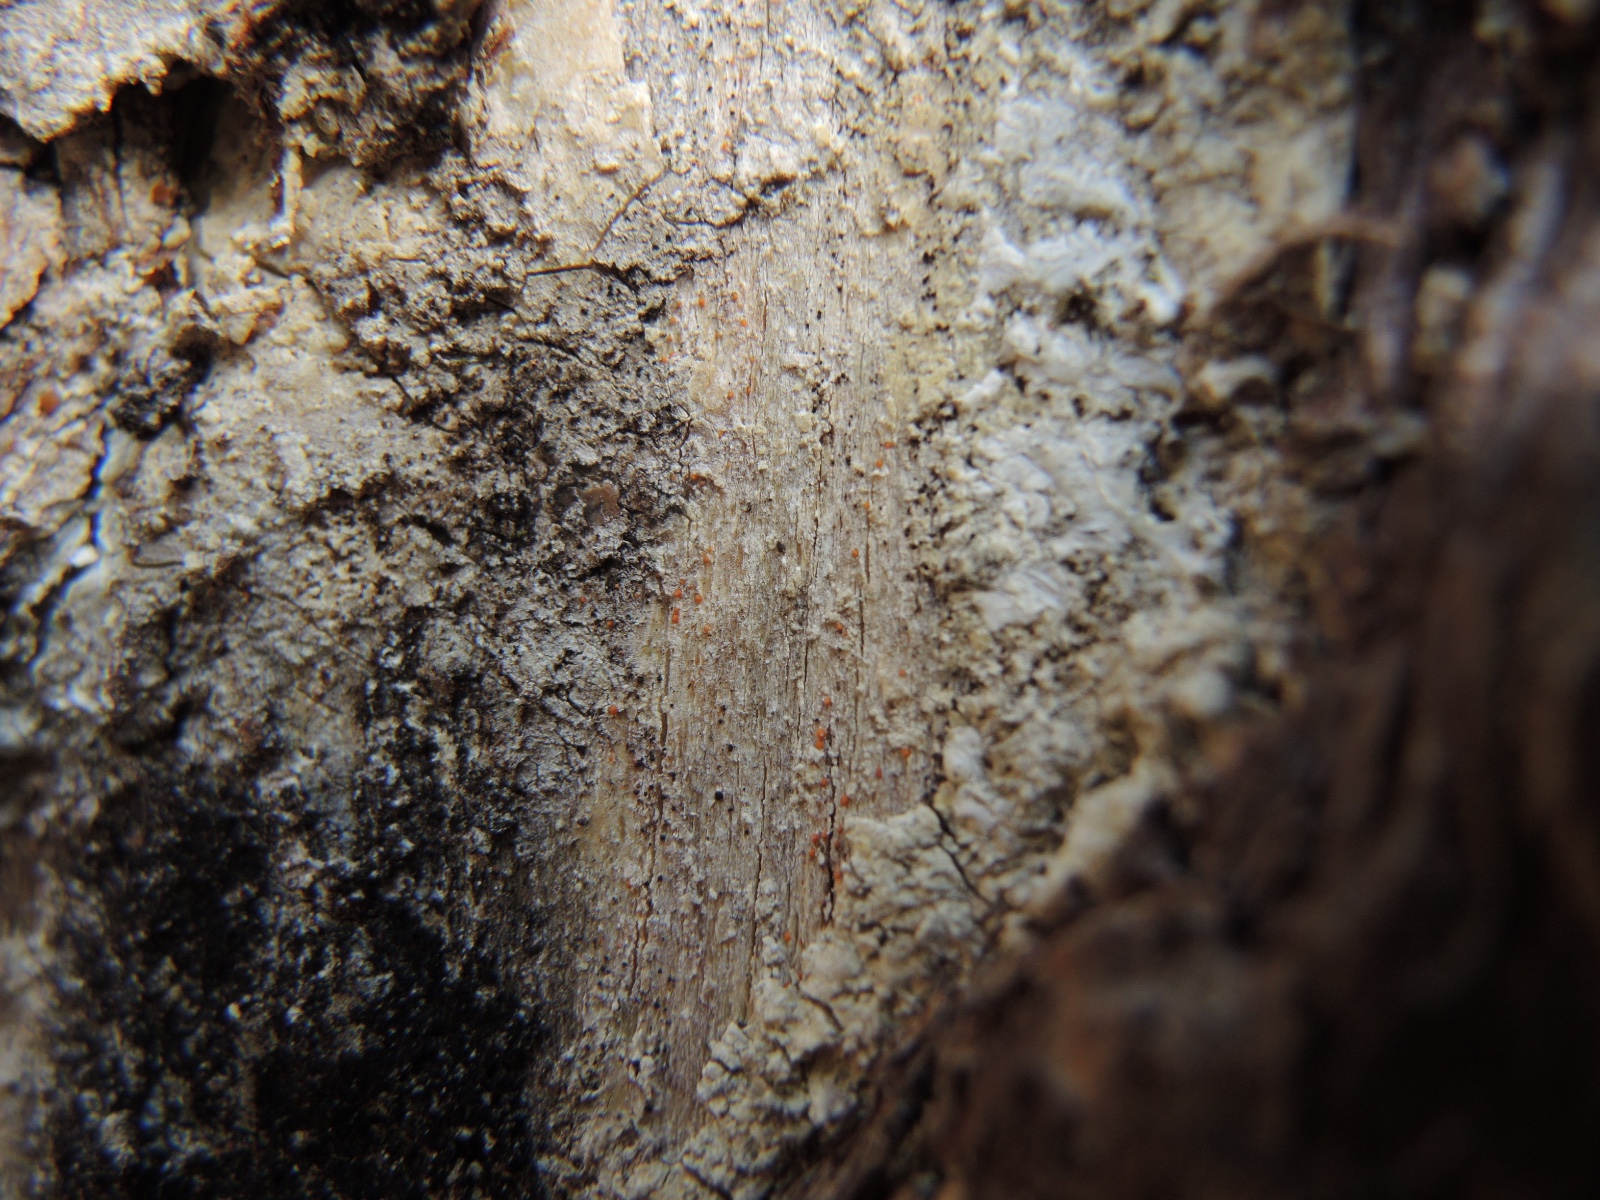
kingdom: Fungi
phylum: Ascomycota
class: Sareomycetes
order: Sareales
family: Sareaceae
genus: Sarea
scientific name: Sarea resinae
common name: orangegul harpiksskive
